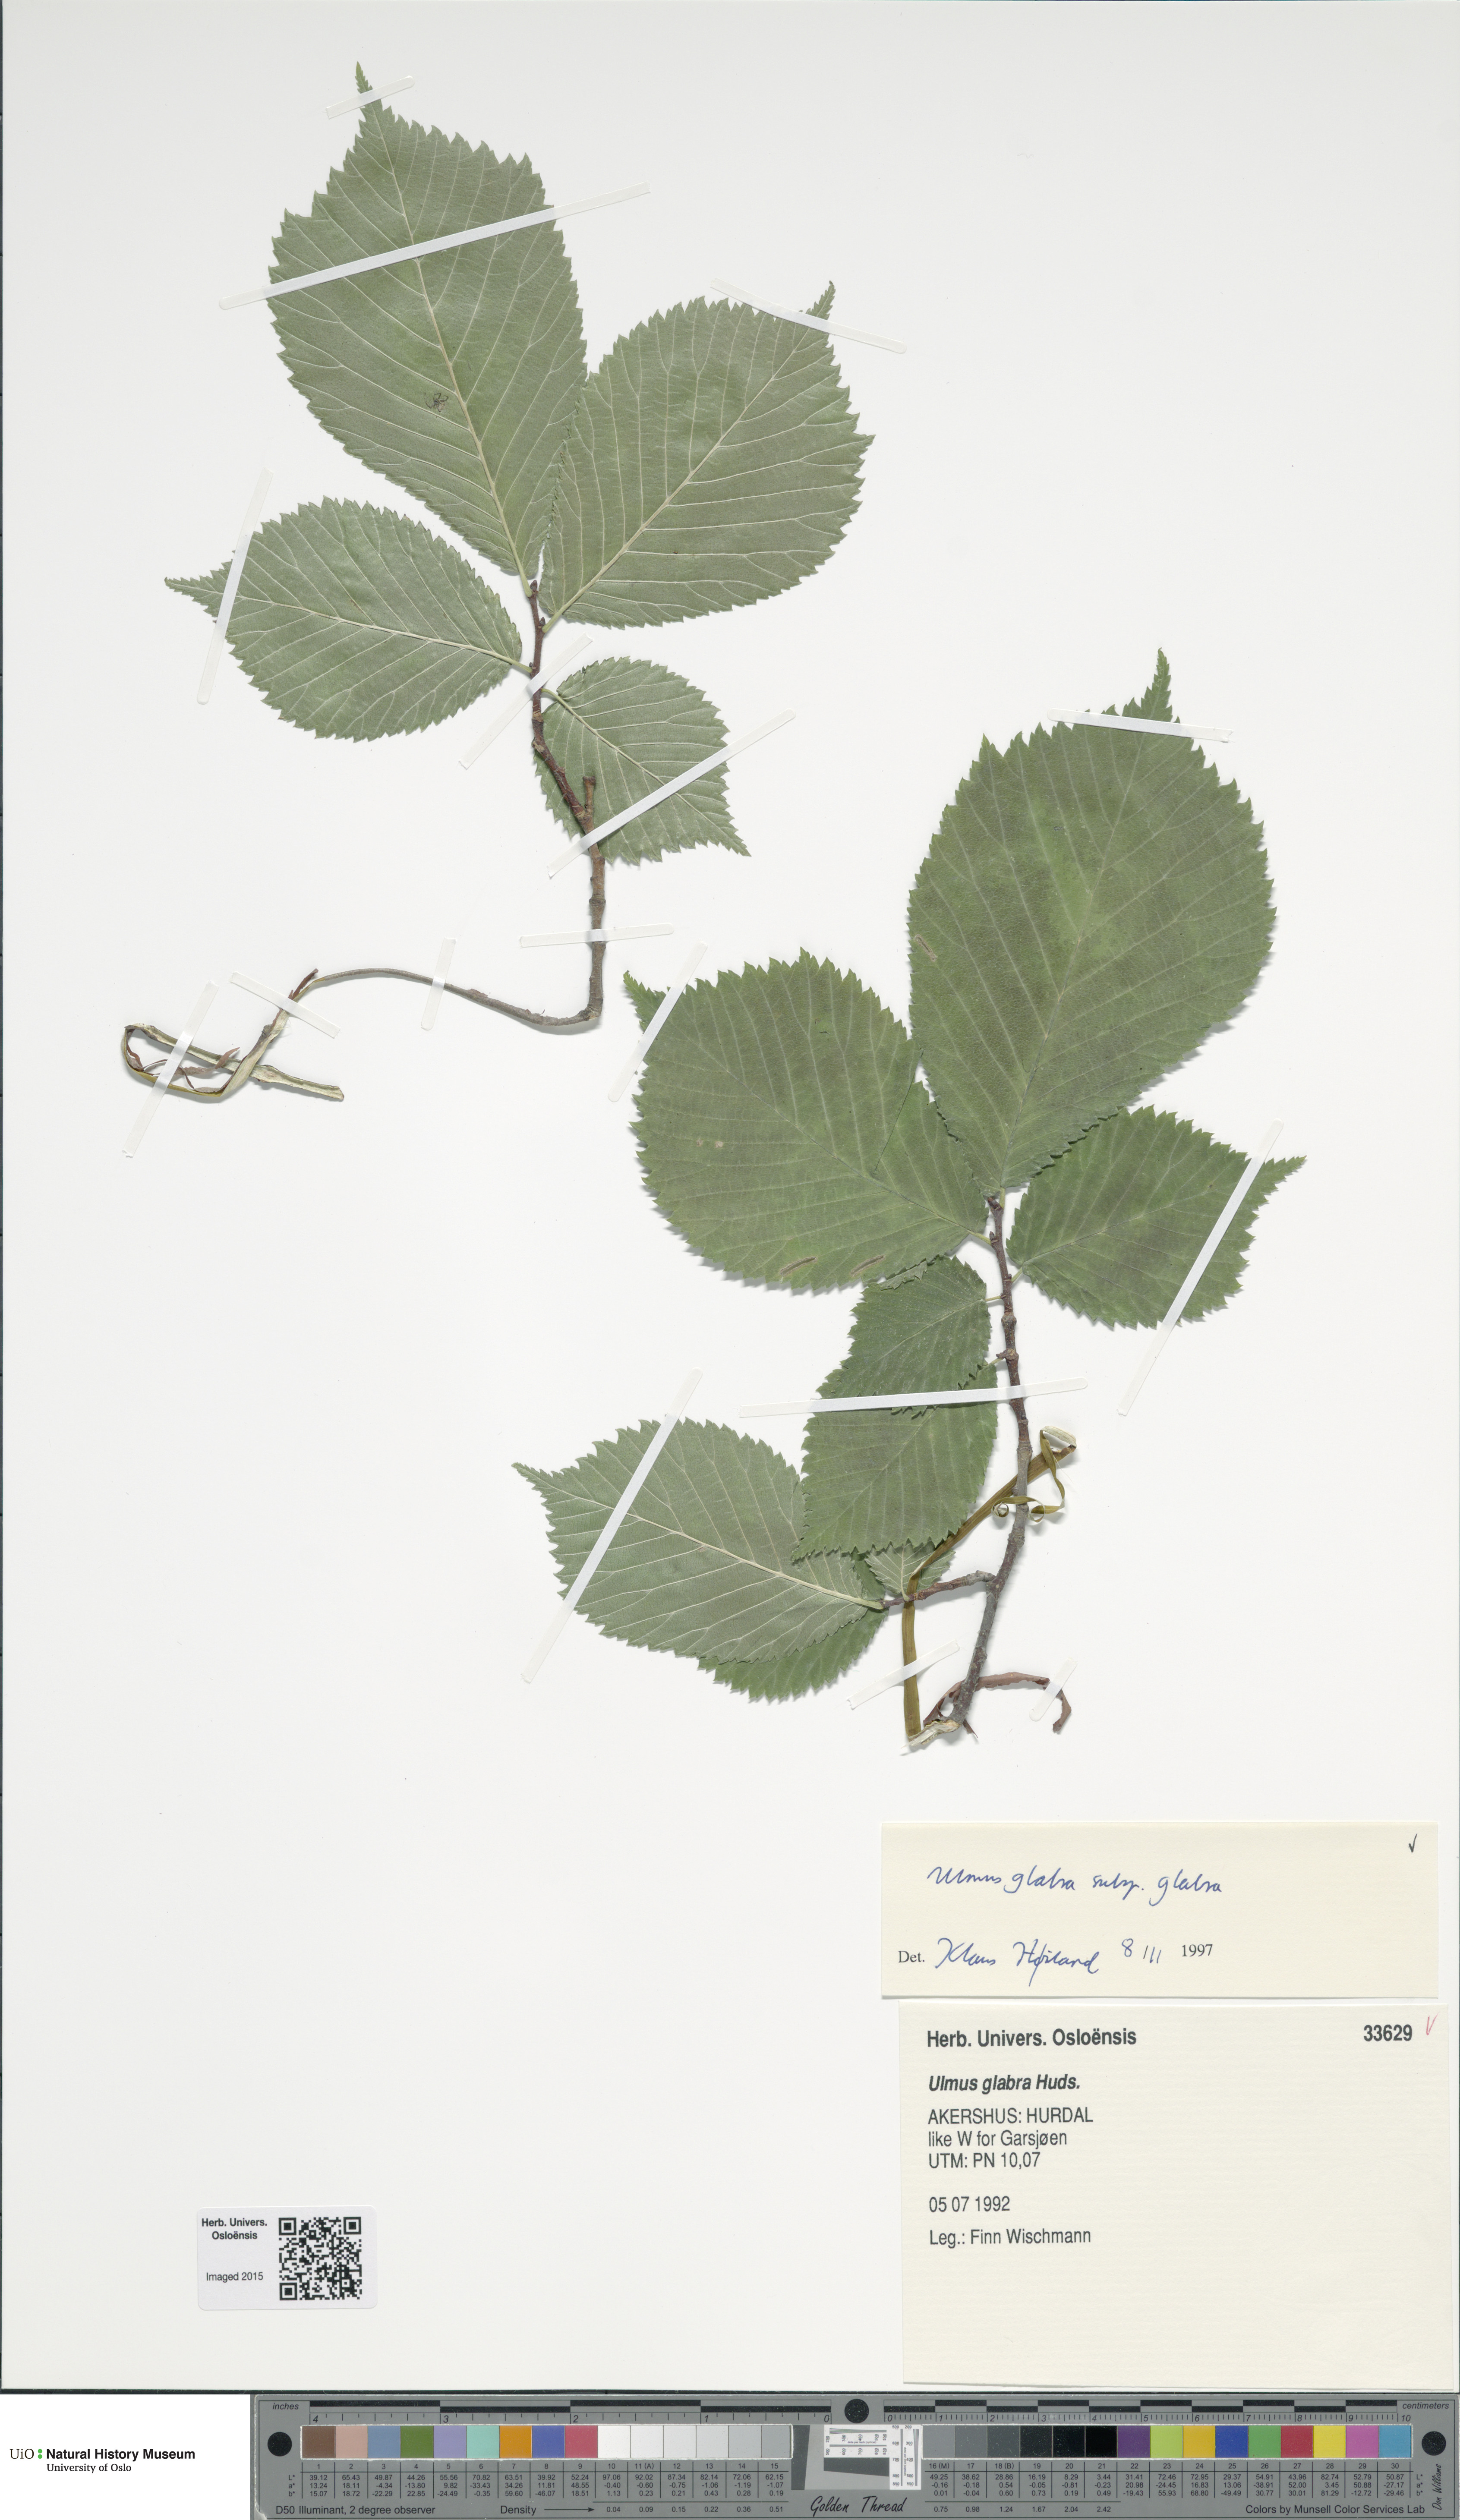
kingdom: Plantae
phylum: Tracheophyta
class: Magnoliopsida
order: Rosales
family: Ulmaceae
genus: Ulmus
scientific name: Ulmus glabra
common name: Wych elm
